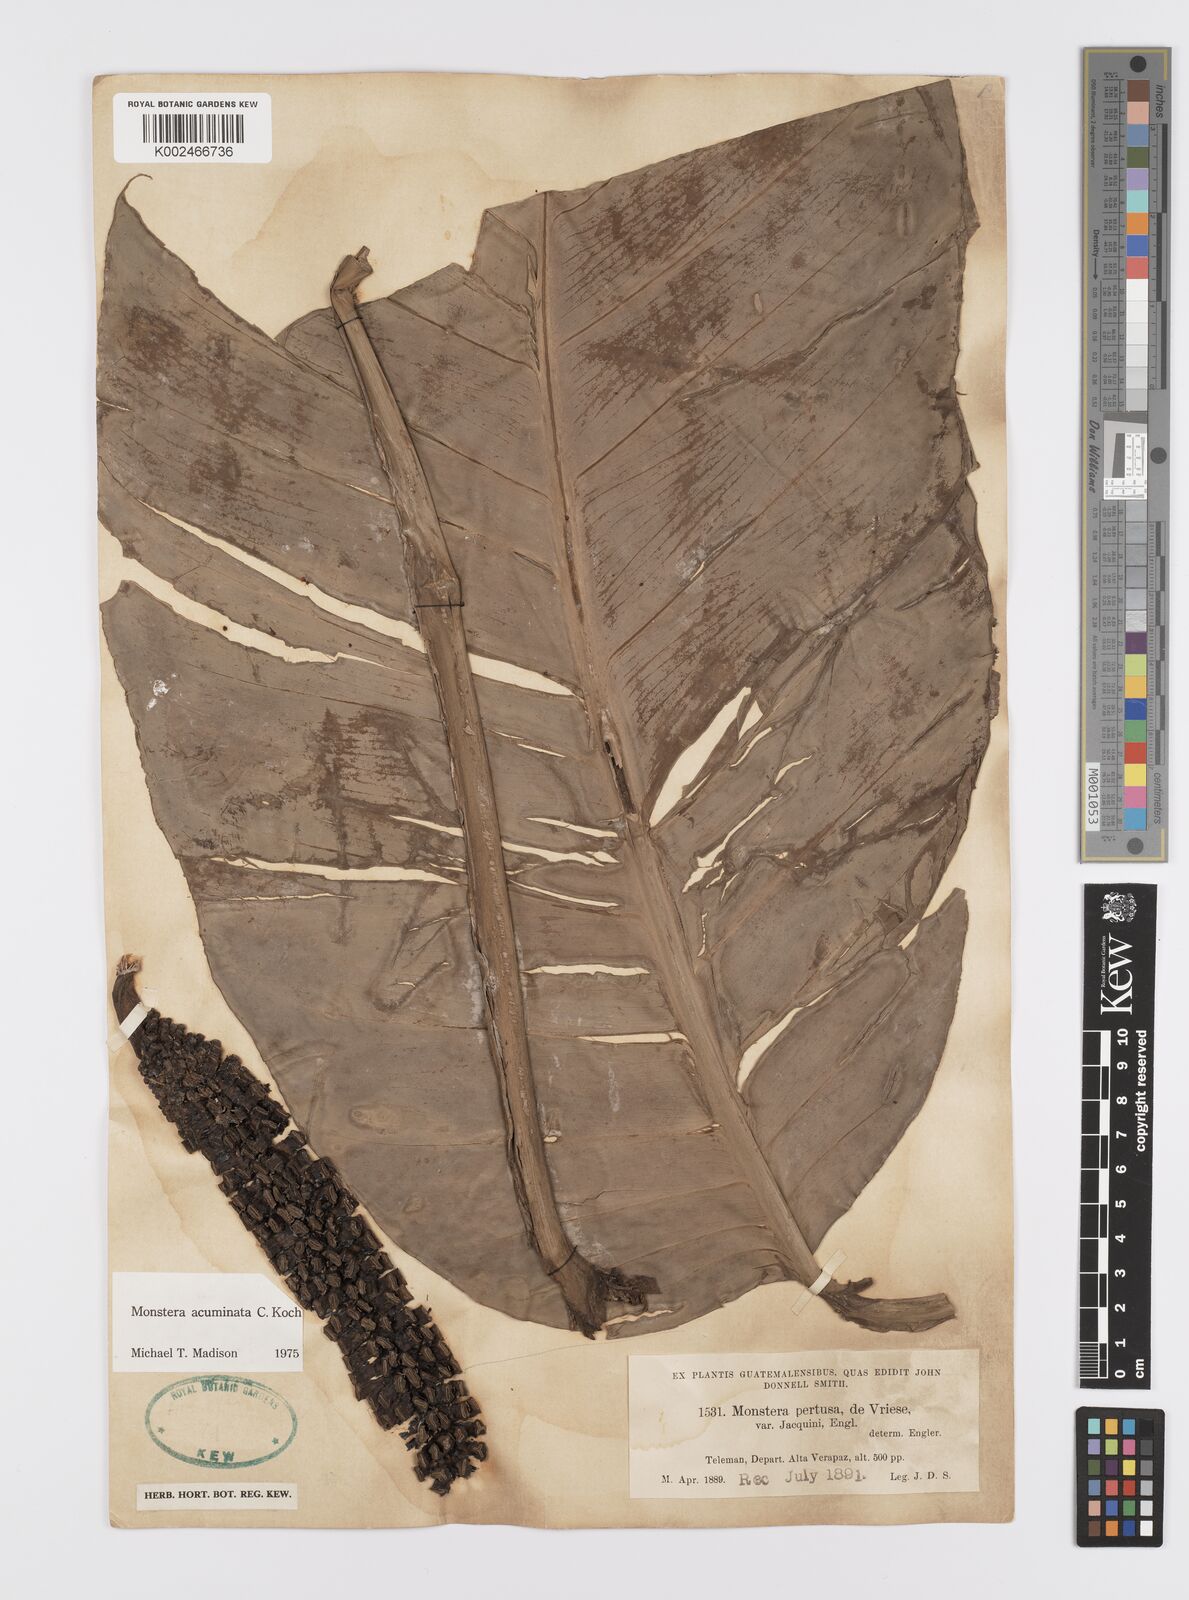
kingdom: Plantae
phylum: Tracheophyta
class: Liliopsida
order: Alismatales
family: Araceae
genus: Monstera
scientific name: Monstera acuminata
